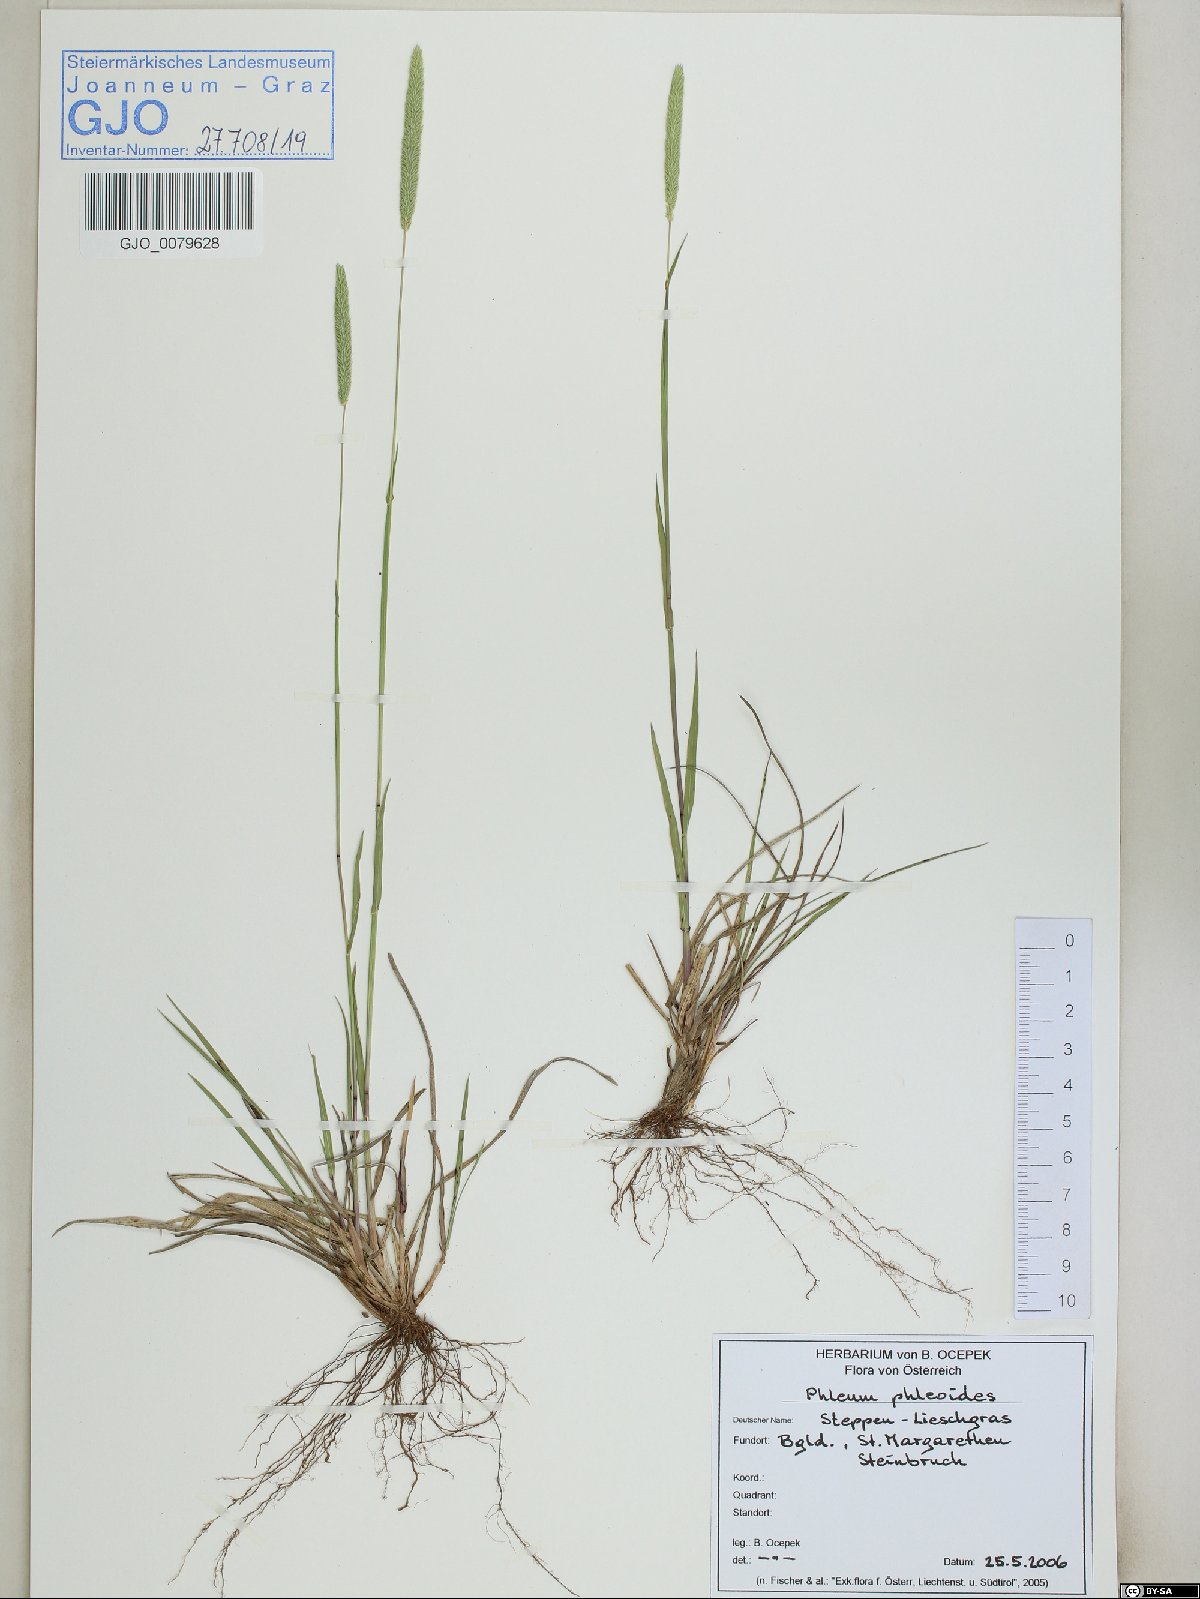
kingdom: Plantae
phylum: Tracheophyta
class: Liliopsida
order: Poales
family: Poaceae
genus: Phleum
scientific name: Phleum phleoides
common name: Purple-stem cat's-tail
